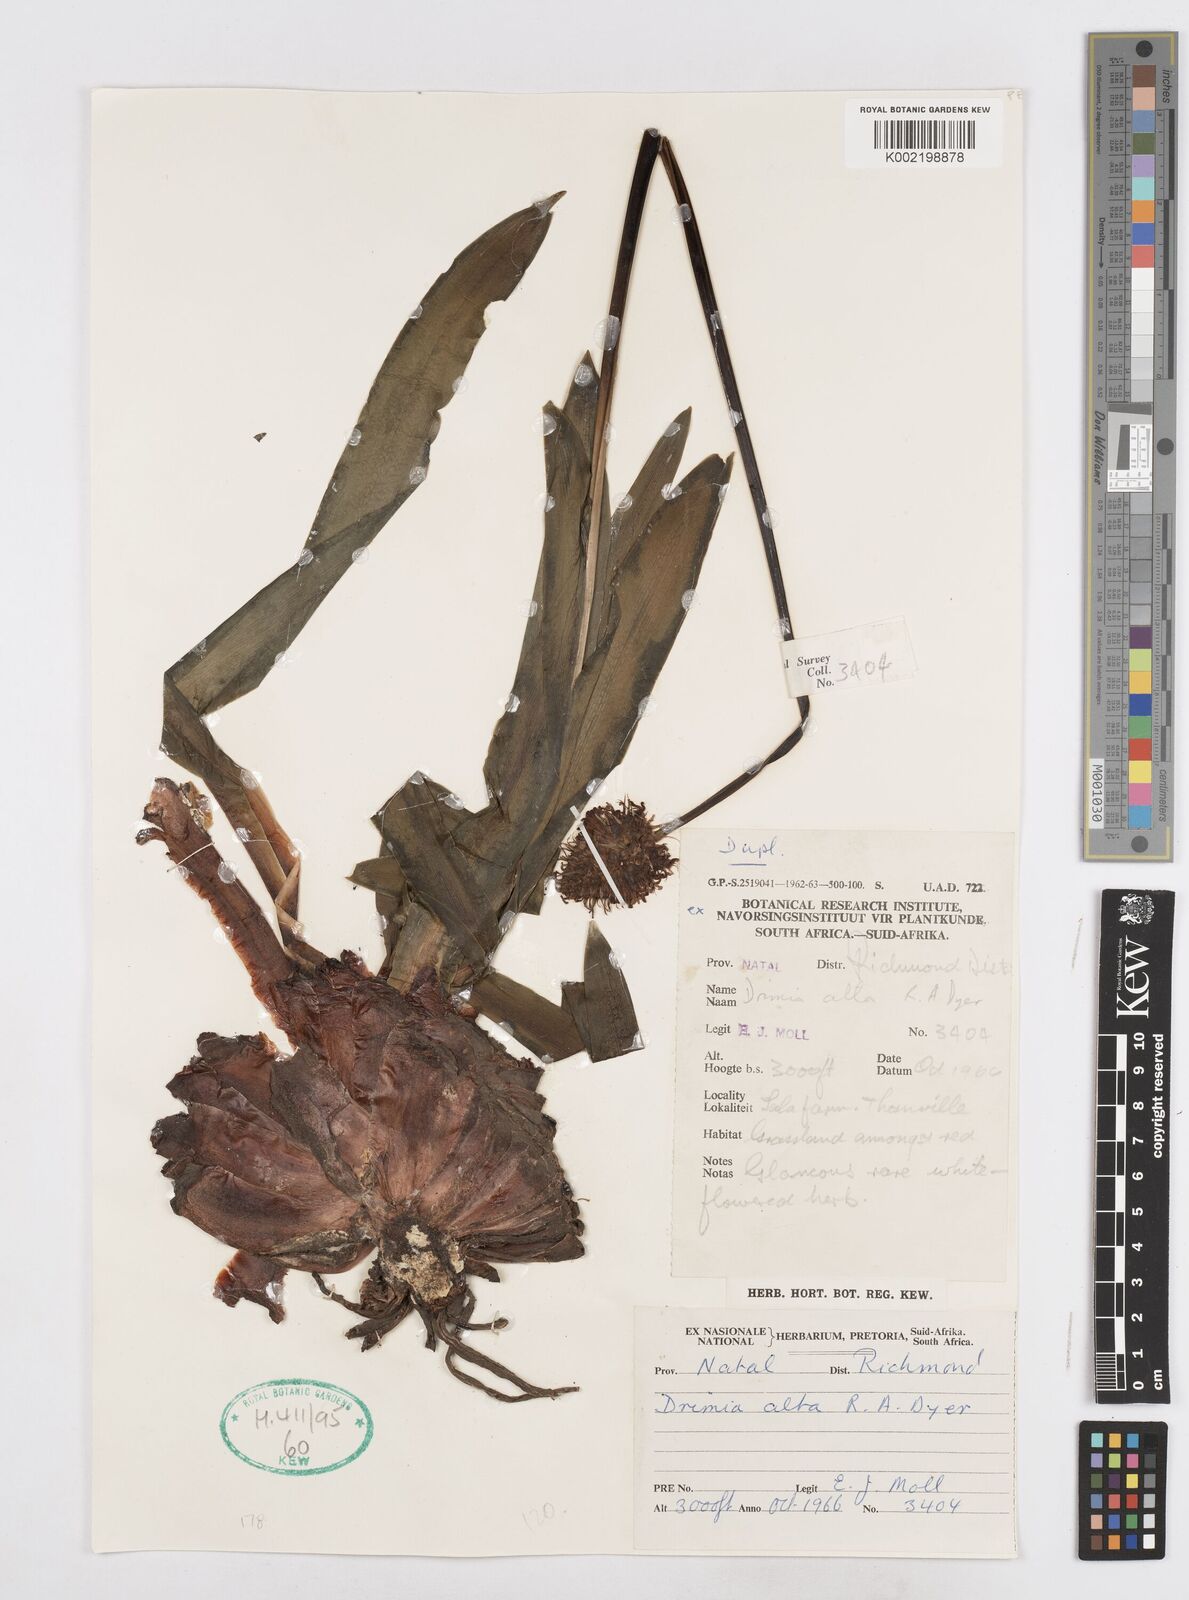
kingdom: Plantae
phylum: Tracheophyta
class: Liliopsida
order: Asparagales
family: Asparagaceae
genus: Drimia
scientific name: Drimia elata
